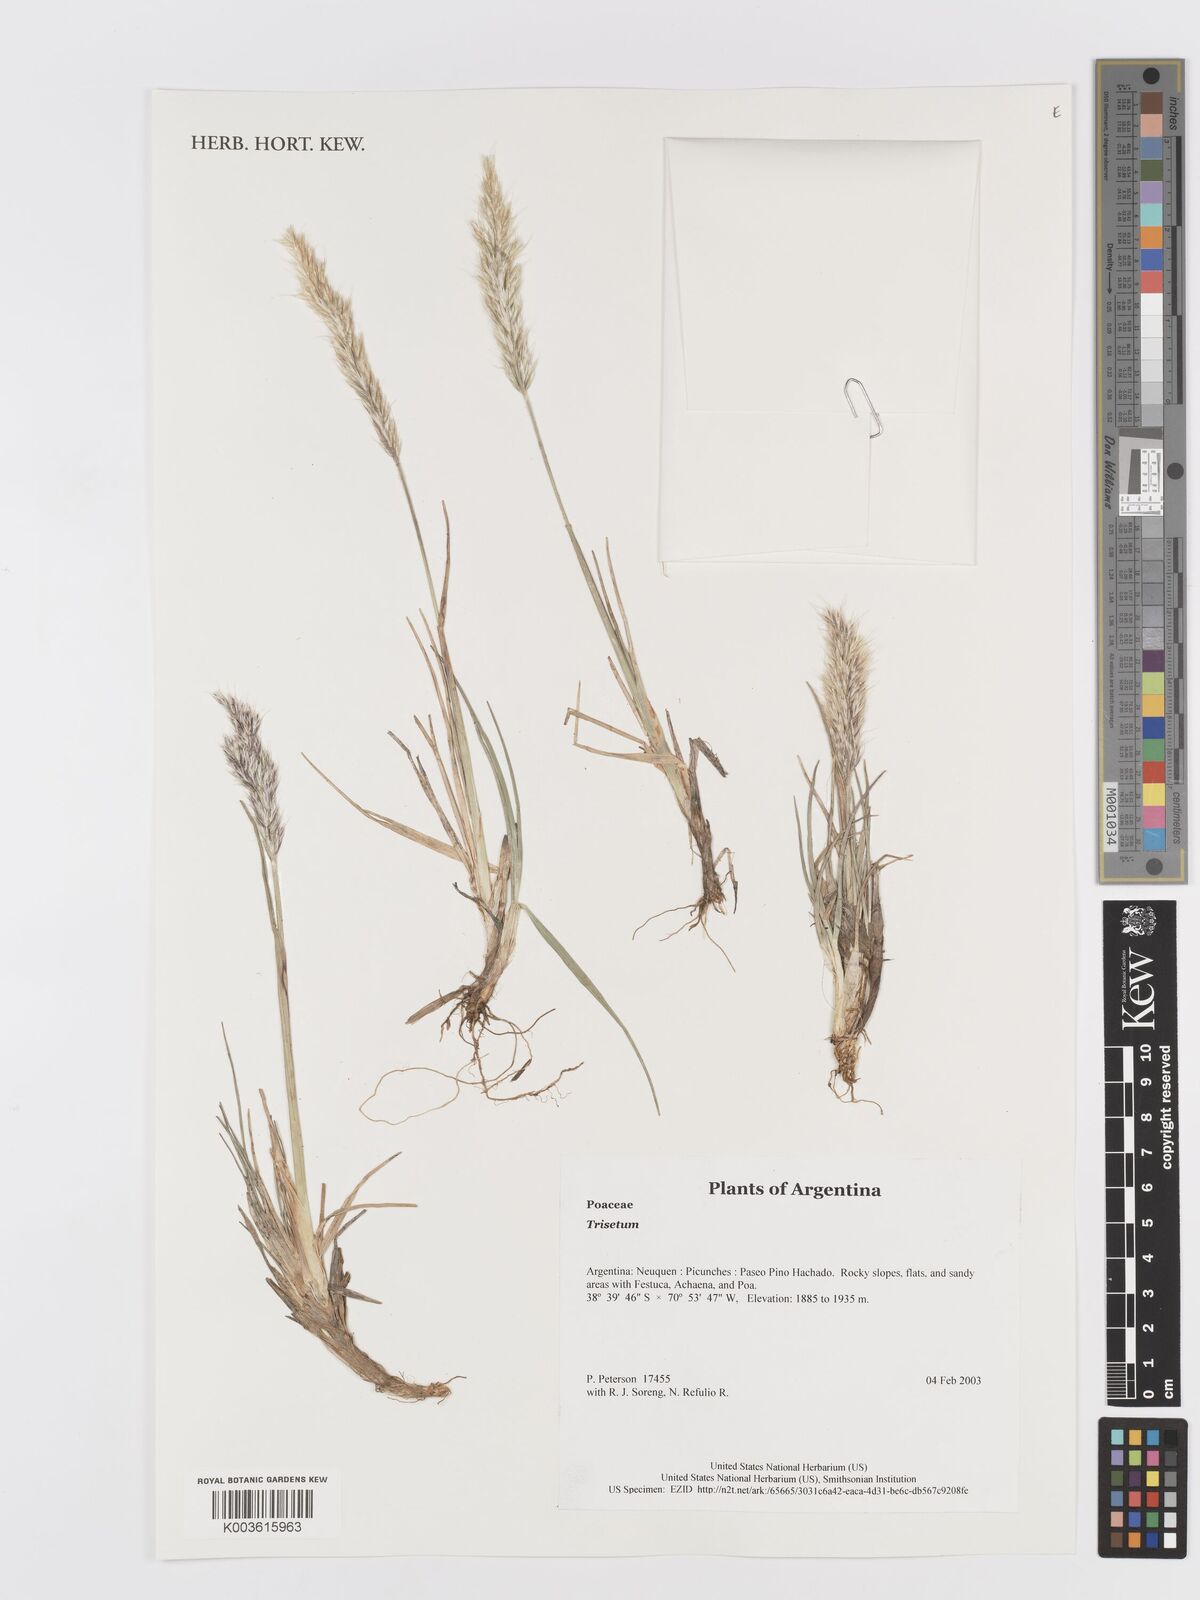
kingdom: Plantae
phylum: Tracheophyta
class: Liliopsida
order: Poales
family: Poaceae
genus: Trisetum
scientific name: Trisetum
